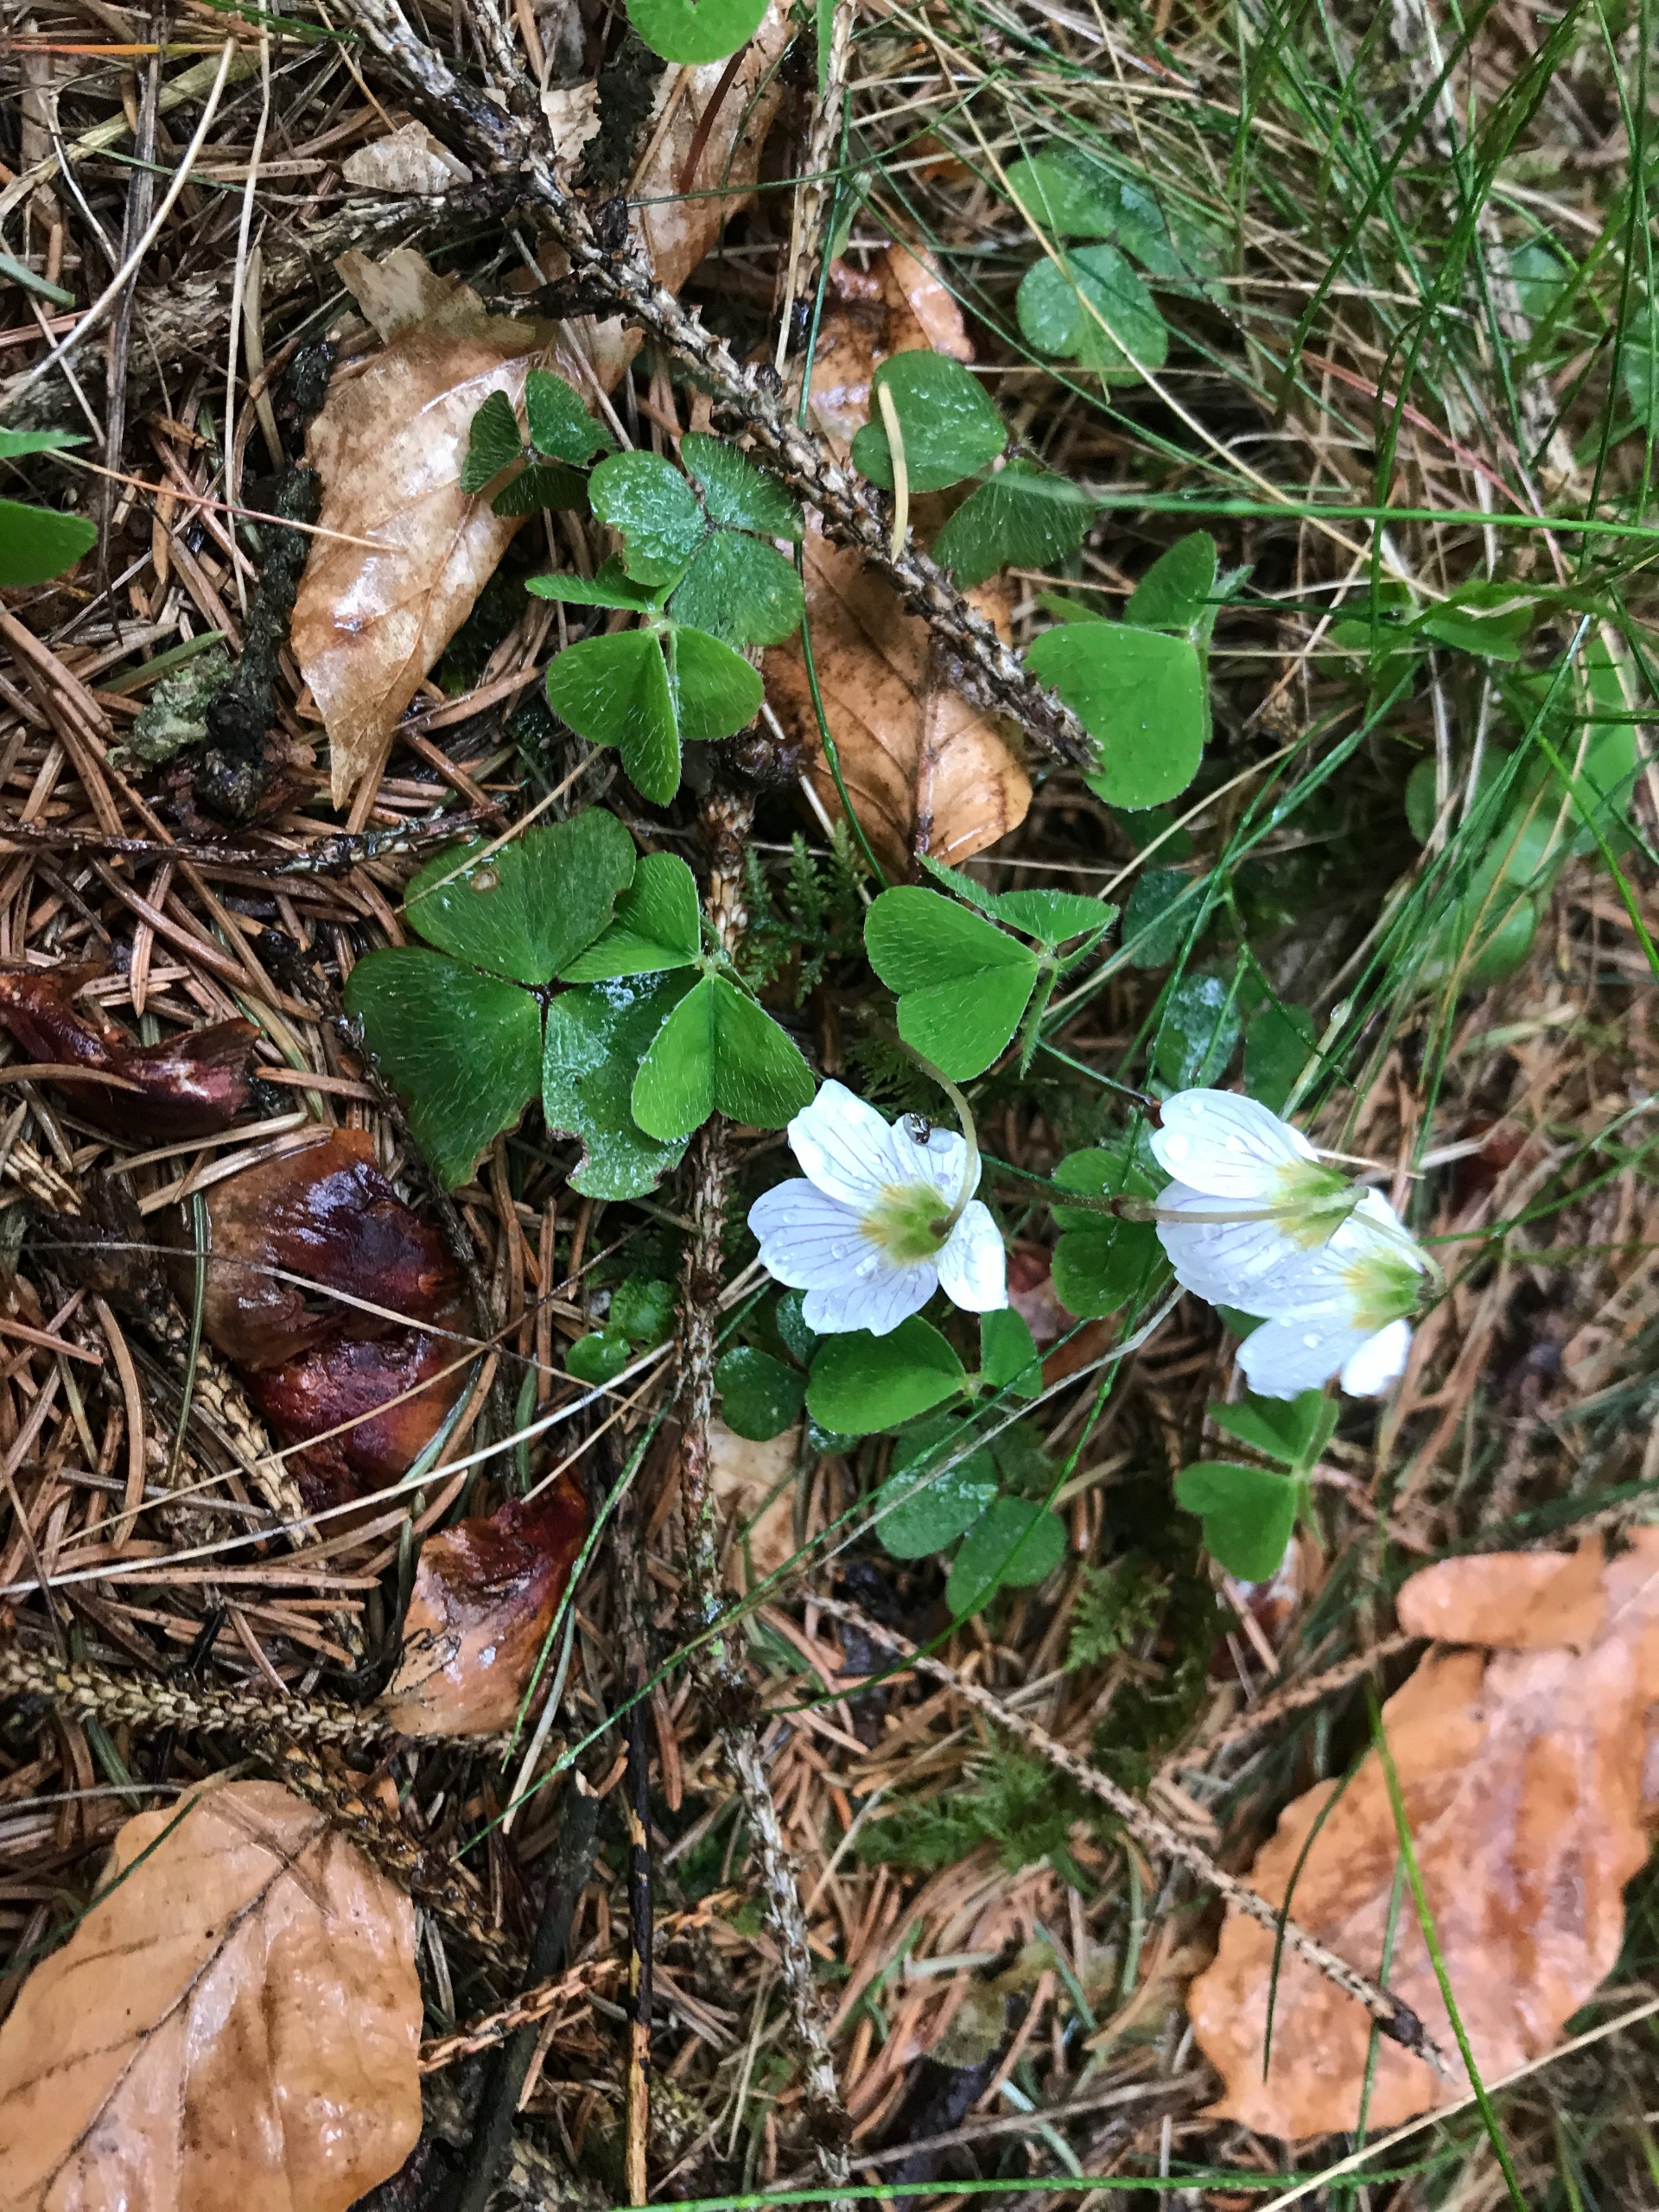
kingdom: Plantae
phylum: Tracheophyta
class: Magnoliopsida
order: Oxalidales
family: Oxalidaceae
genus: Oxalis
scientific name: Oxalis acetosella
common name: Skovsyre
